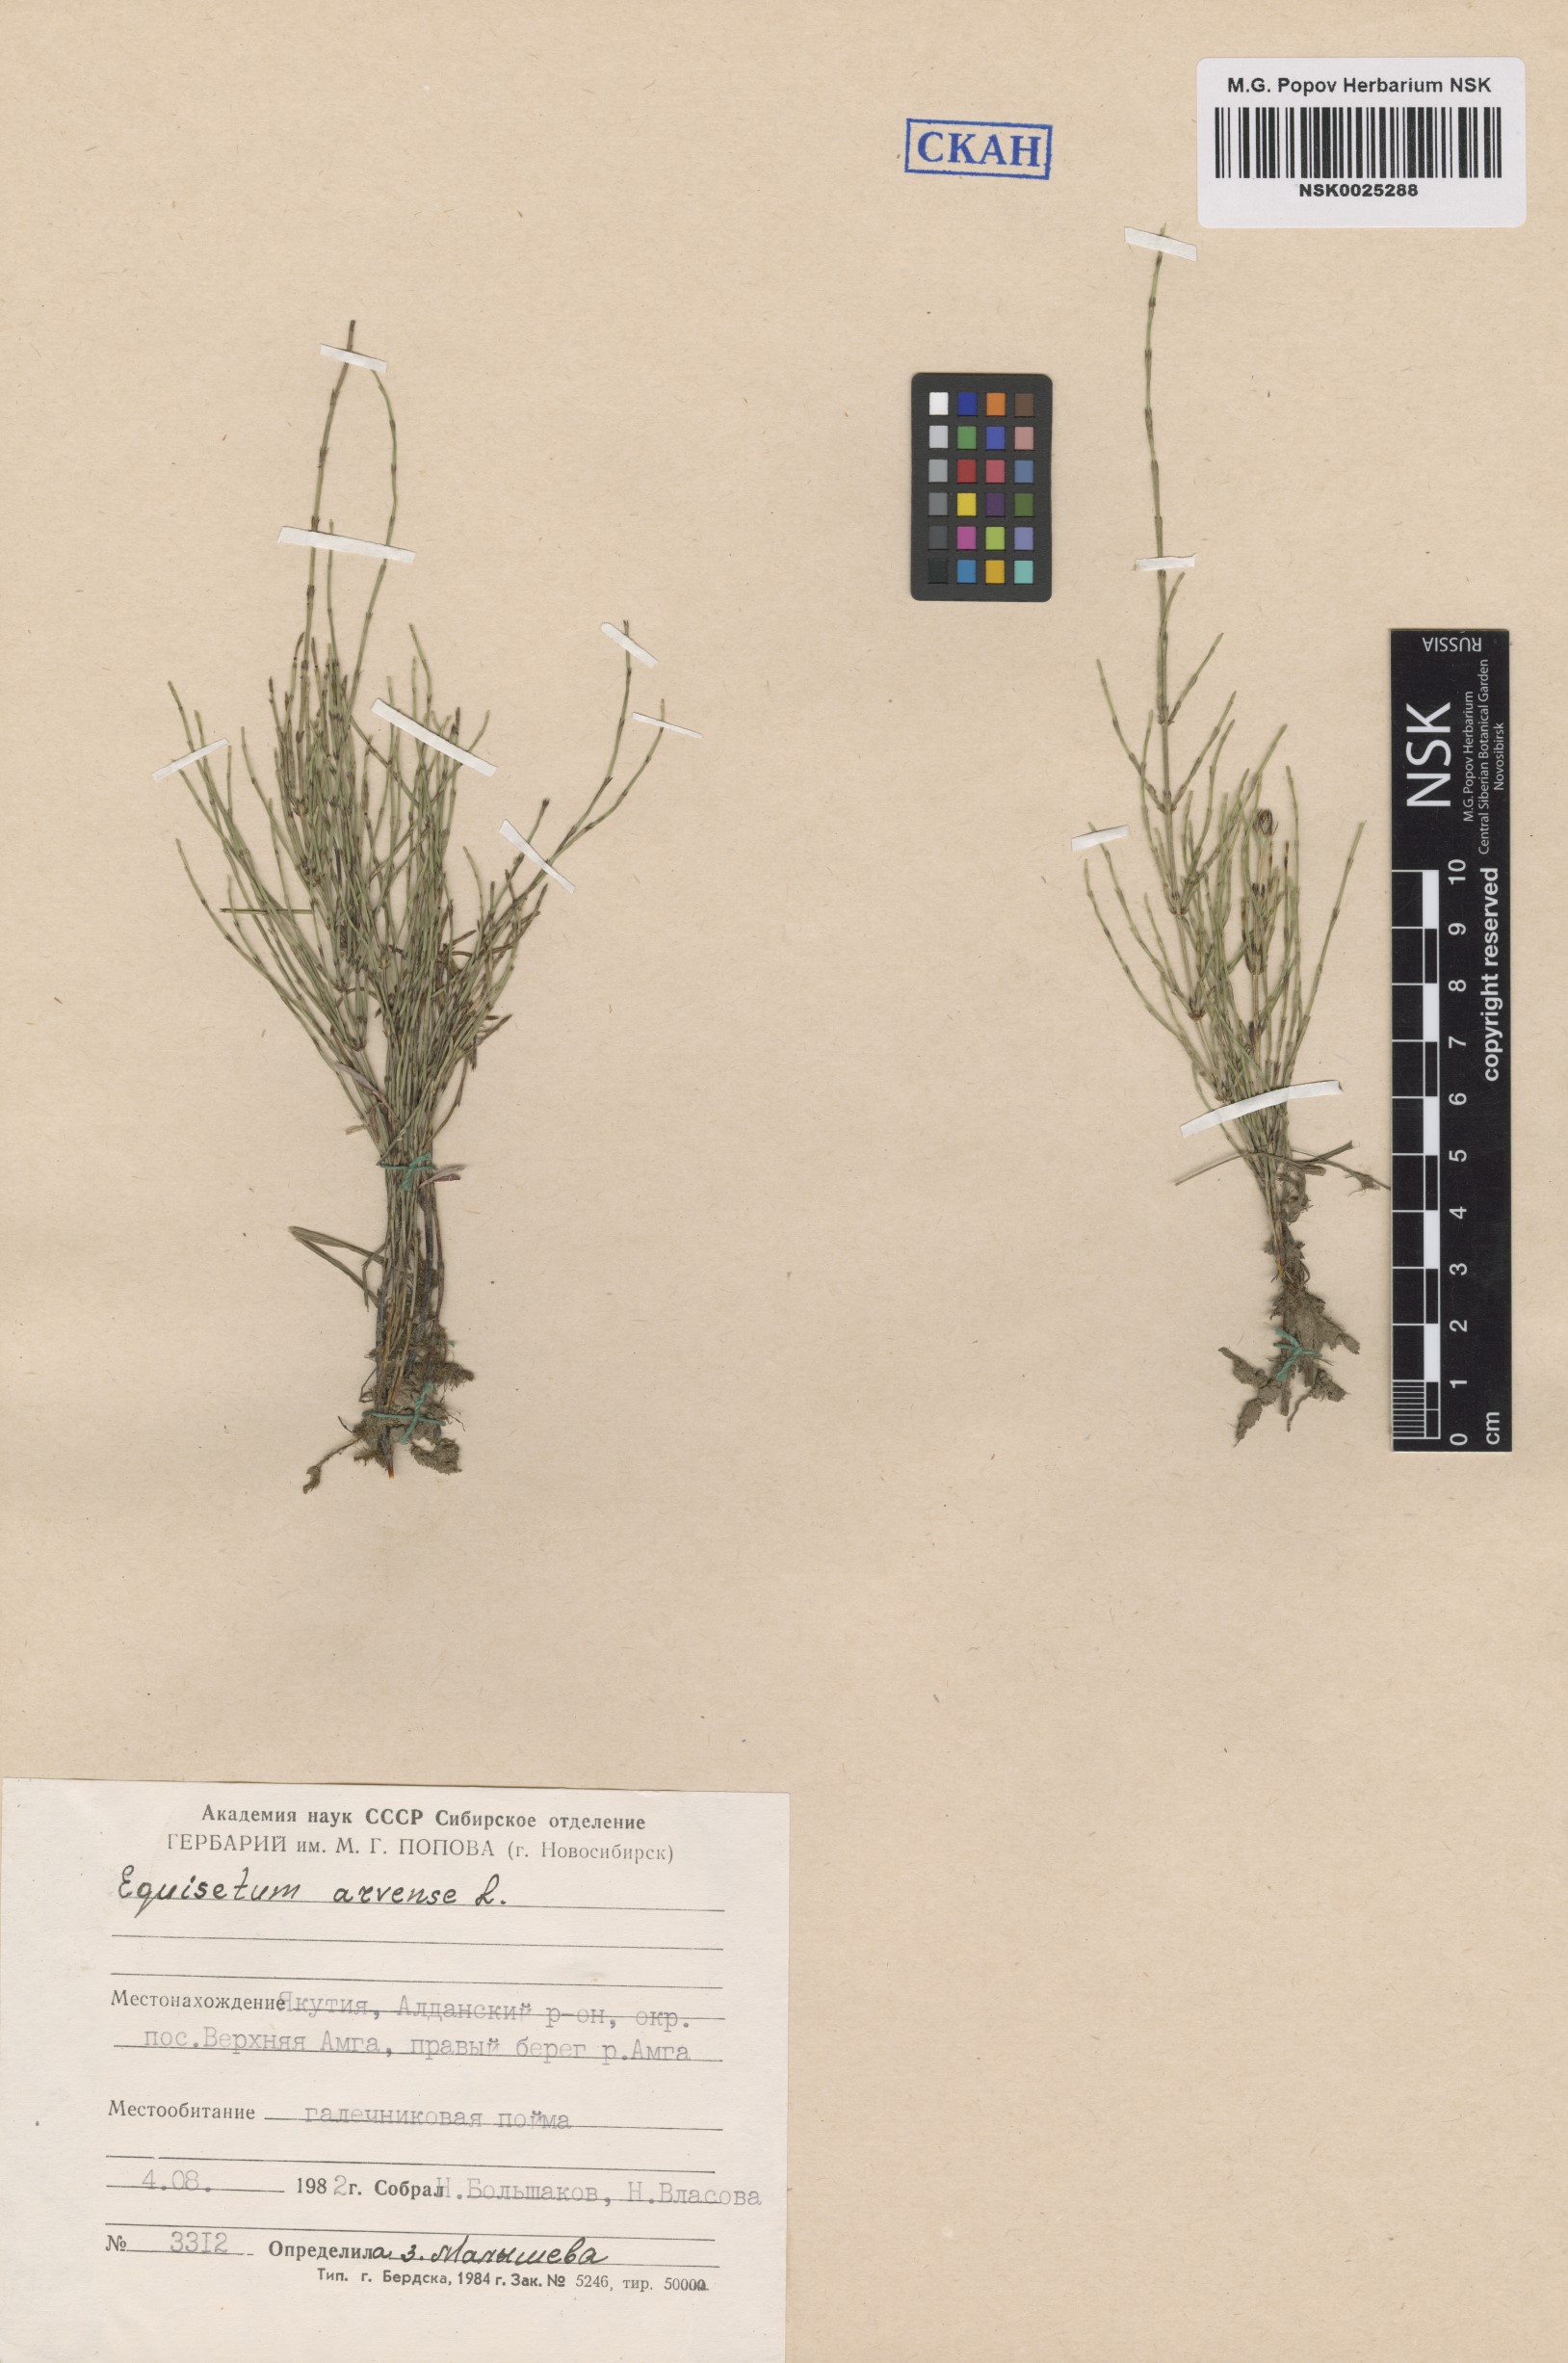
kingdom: Plantae
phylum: Tracheophyta
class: Polypodiopsida
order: Equisetales
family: Equisetaceae
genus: Equisetum
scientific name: Equisetum arvense
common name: Field horsetail
